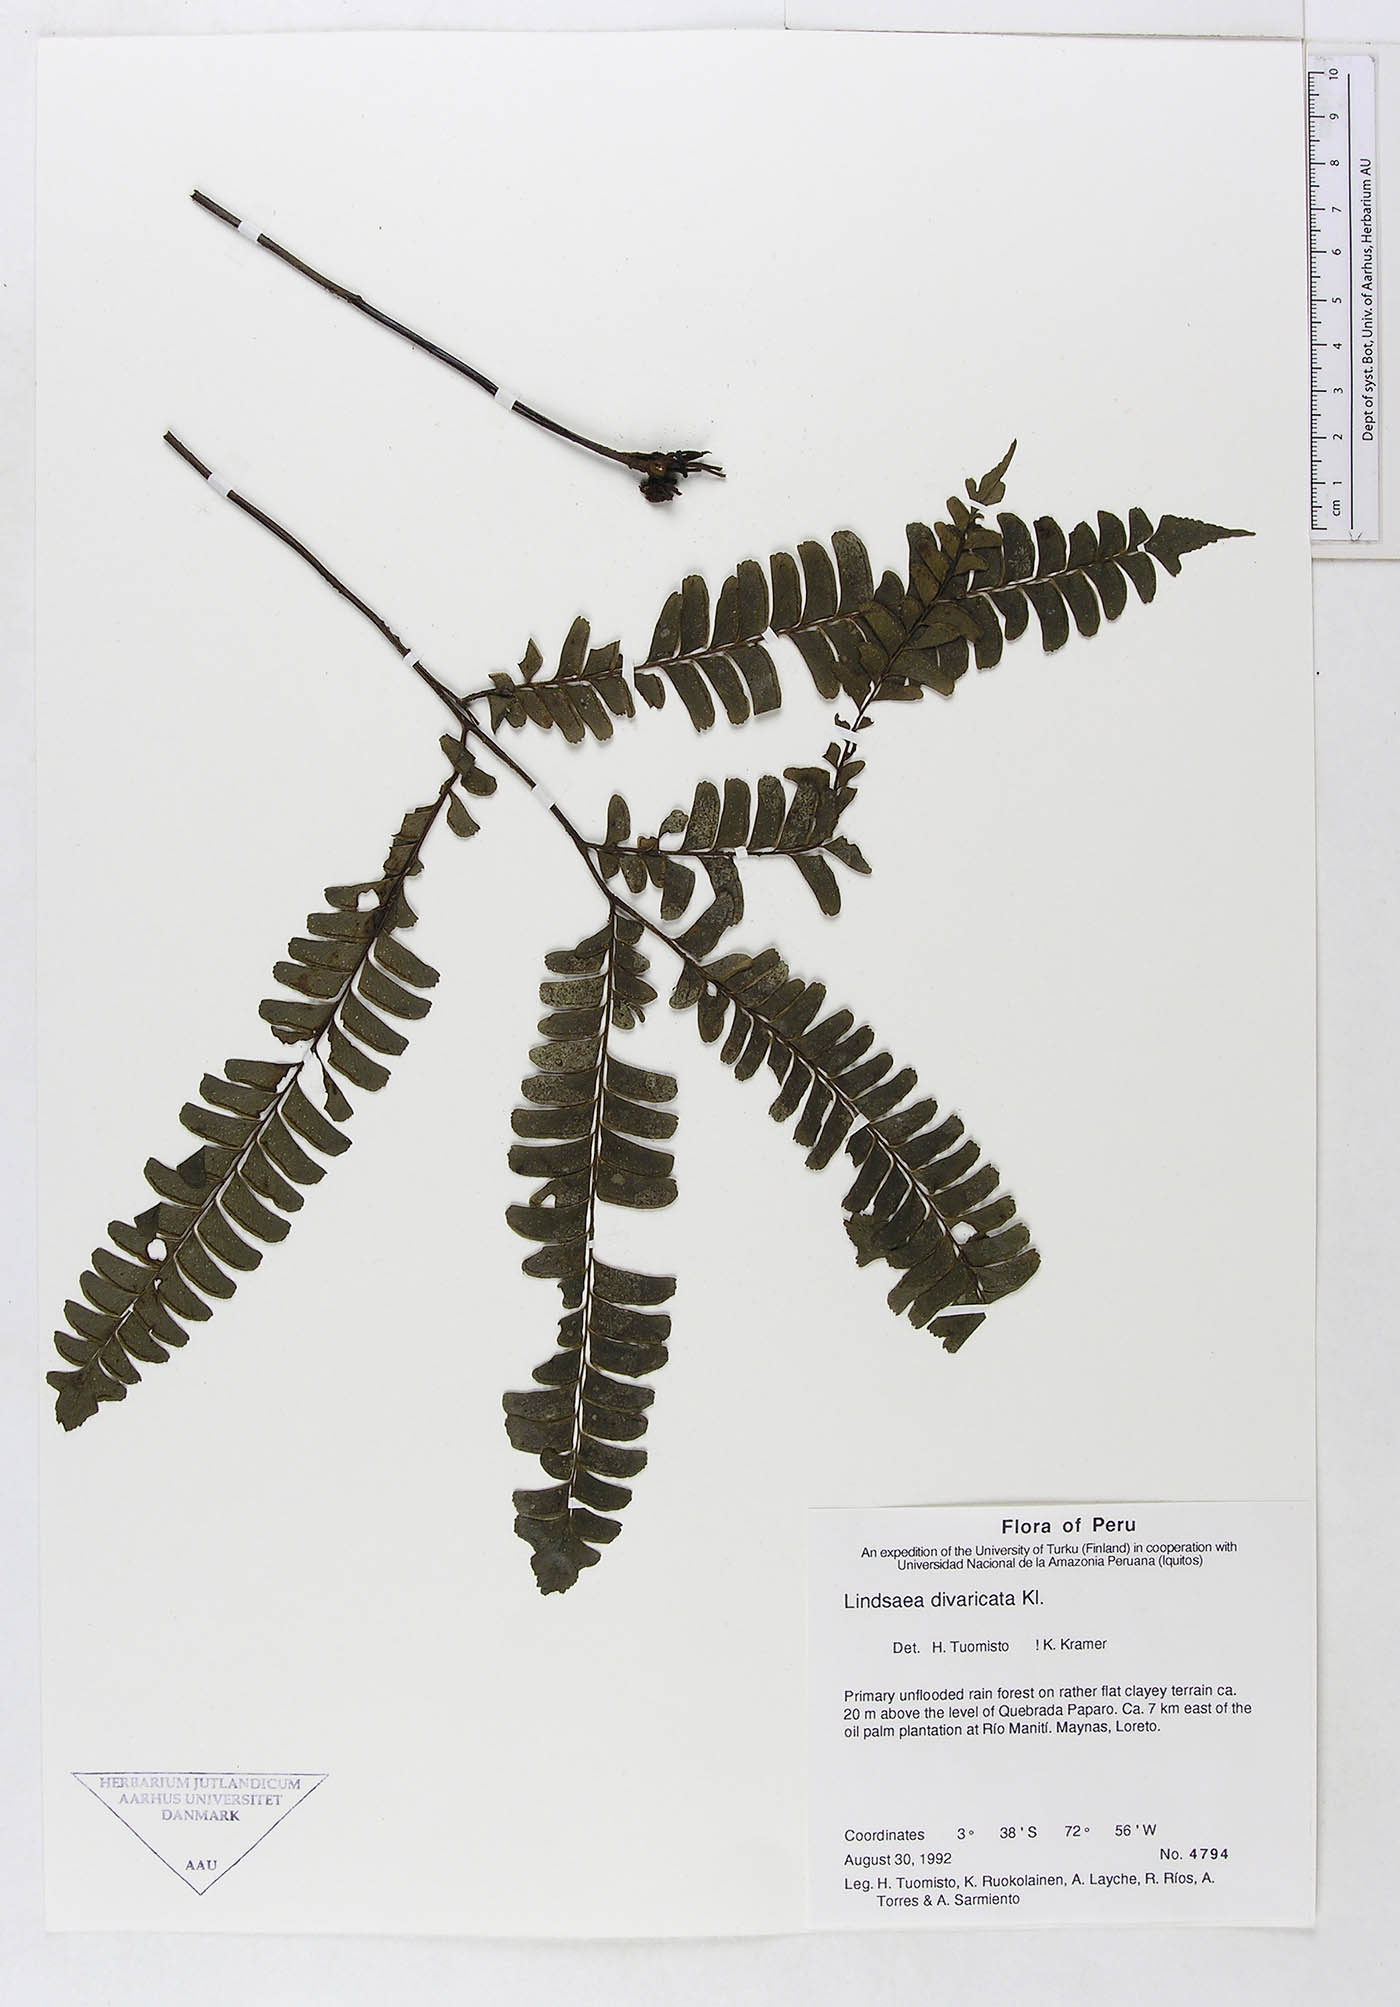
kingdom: Plantae
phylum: Tracheophyta
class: Polypodiopsida
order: Polypodiales
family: Lindsaeaceae
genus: Lindsaea
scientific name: Lindsaea divaricata
